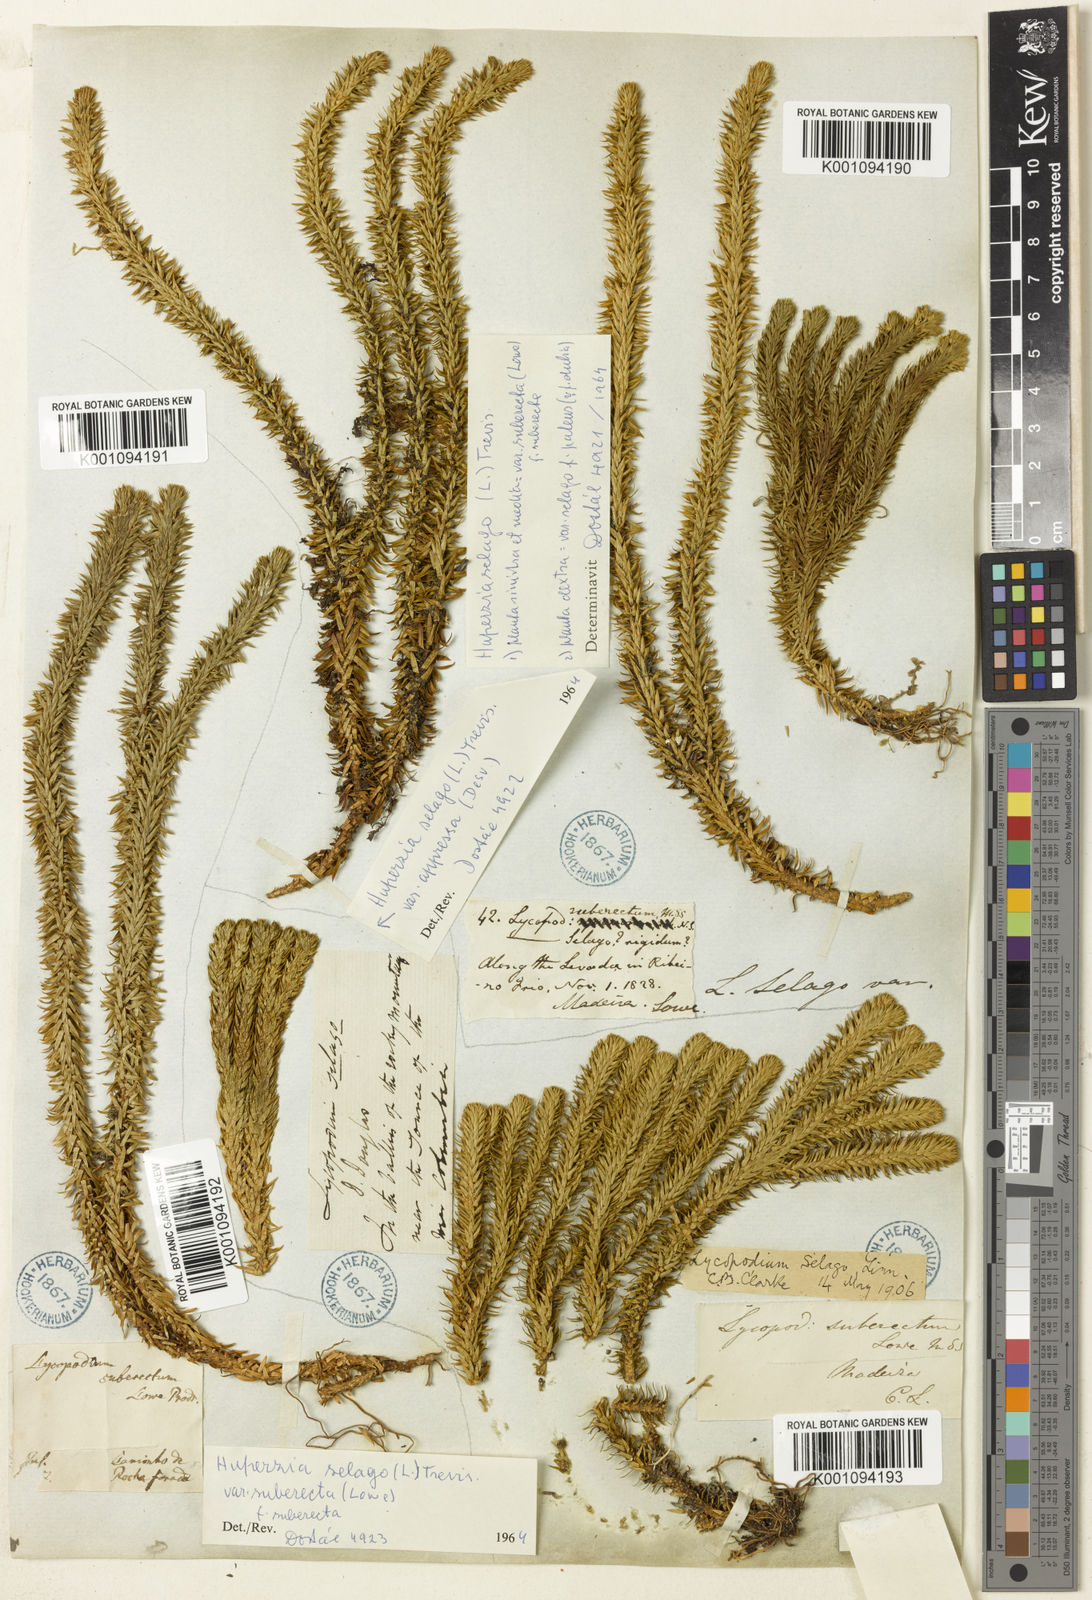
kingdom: Plantae
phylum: Tracheophyta
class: Lycopodiopsida
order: Lycopodiales
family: Lycopodiaceae
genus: Lycopodium
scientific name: Lycopodium
